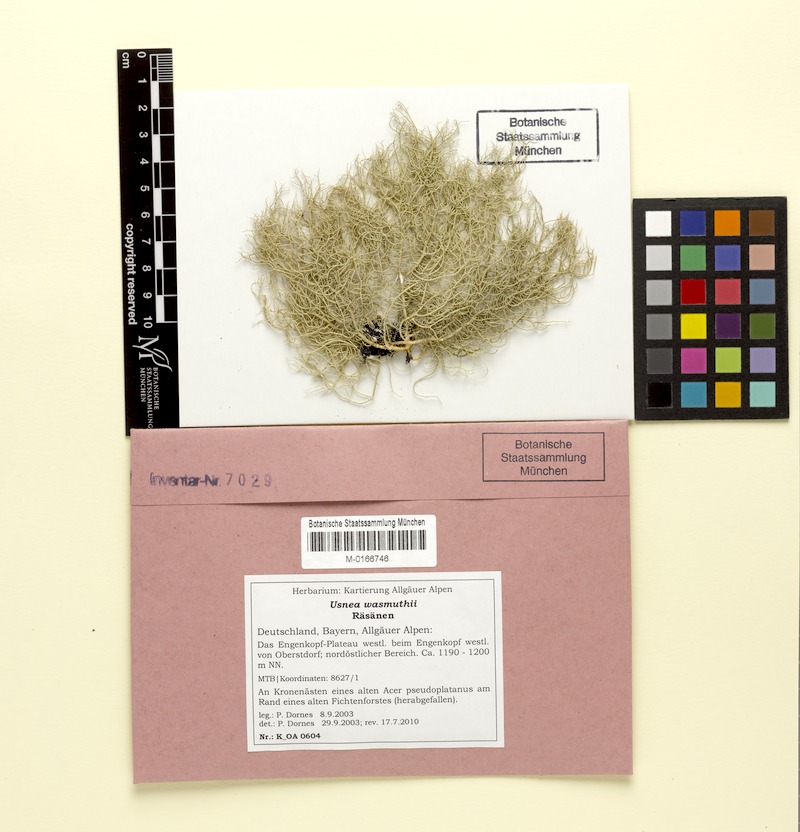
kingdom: Fungi
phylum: Ascomycota
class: Lecanoromycetes
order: Lecanorales
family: Parmeliaceae
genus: Usnea
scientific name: Usnea wasmuthii
